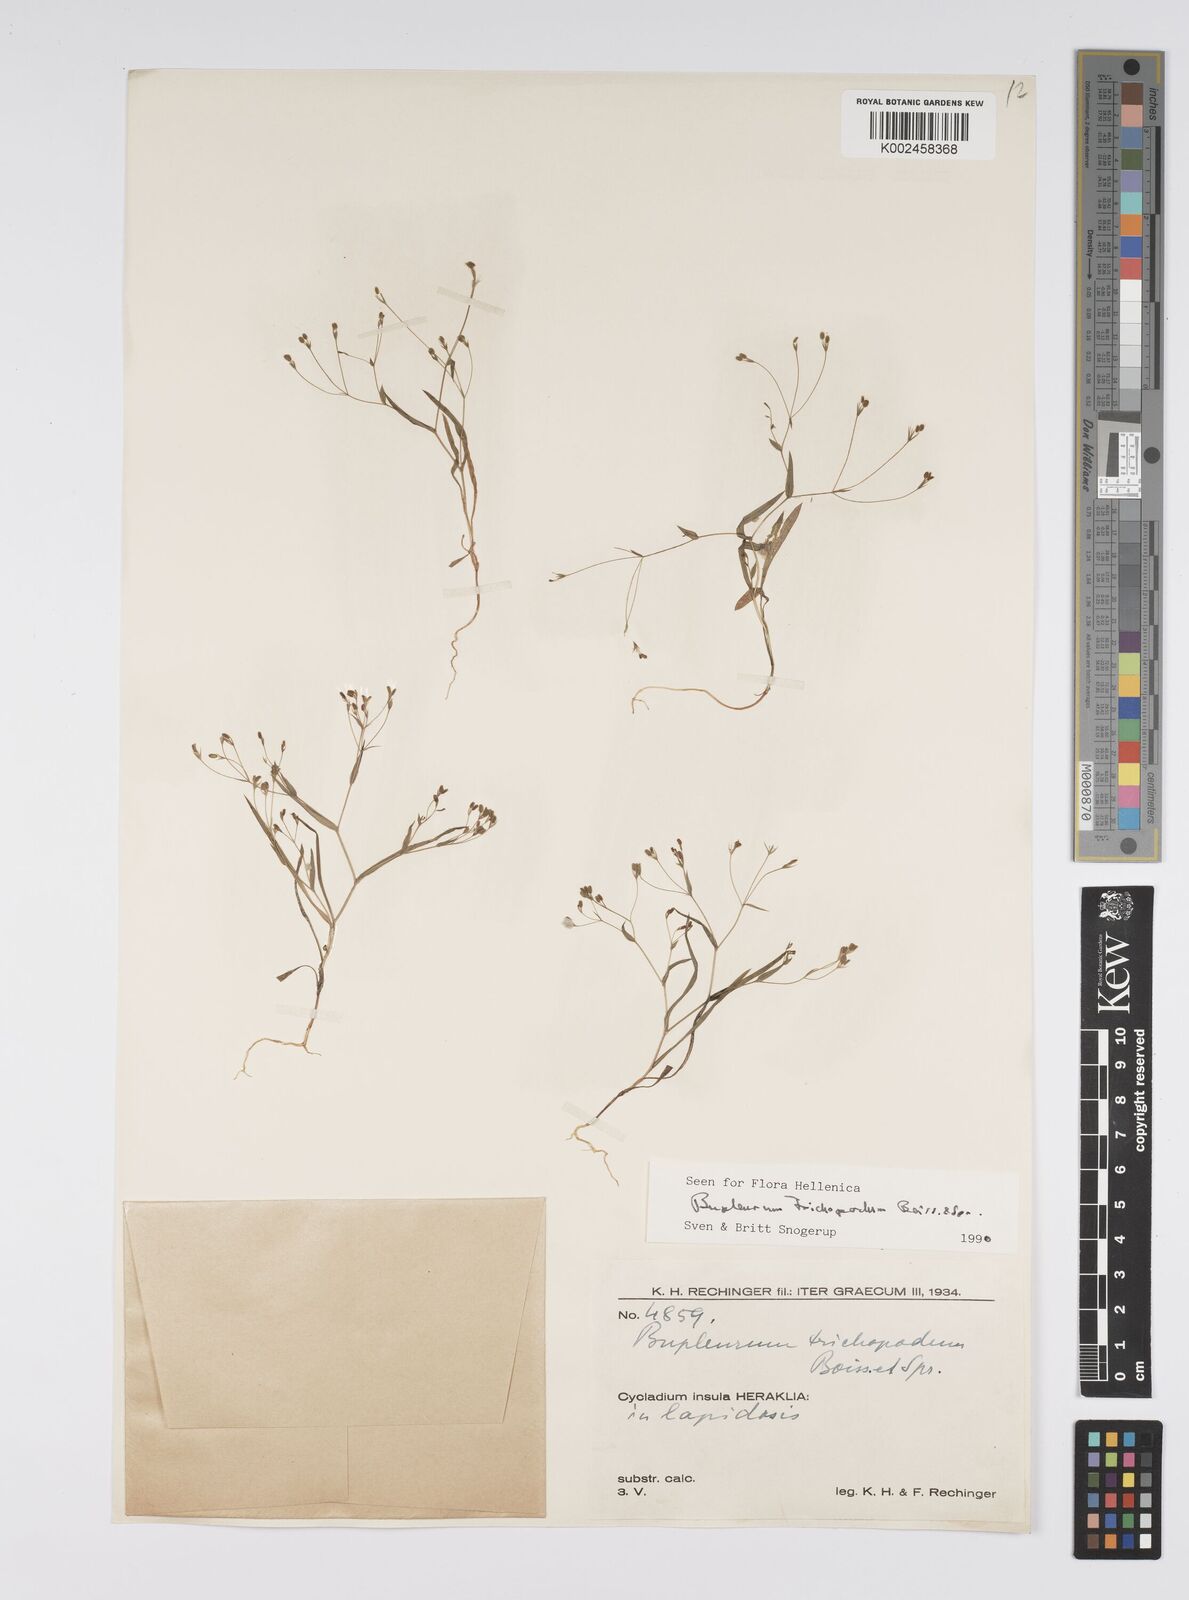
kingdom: Plantae
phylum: Tracheophyta
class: Magnoliopsida
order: Apiales
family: Apiaceae
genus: Bupleurum
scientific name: Bupleurum trichopodum
